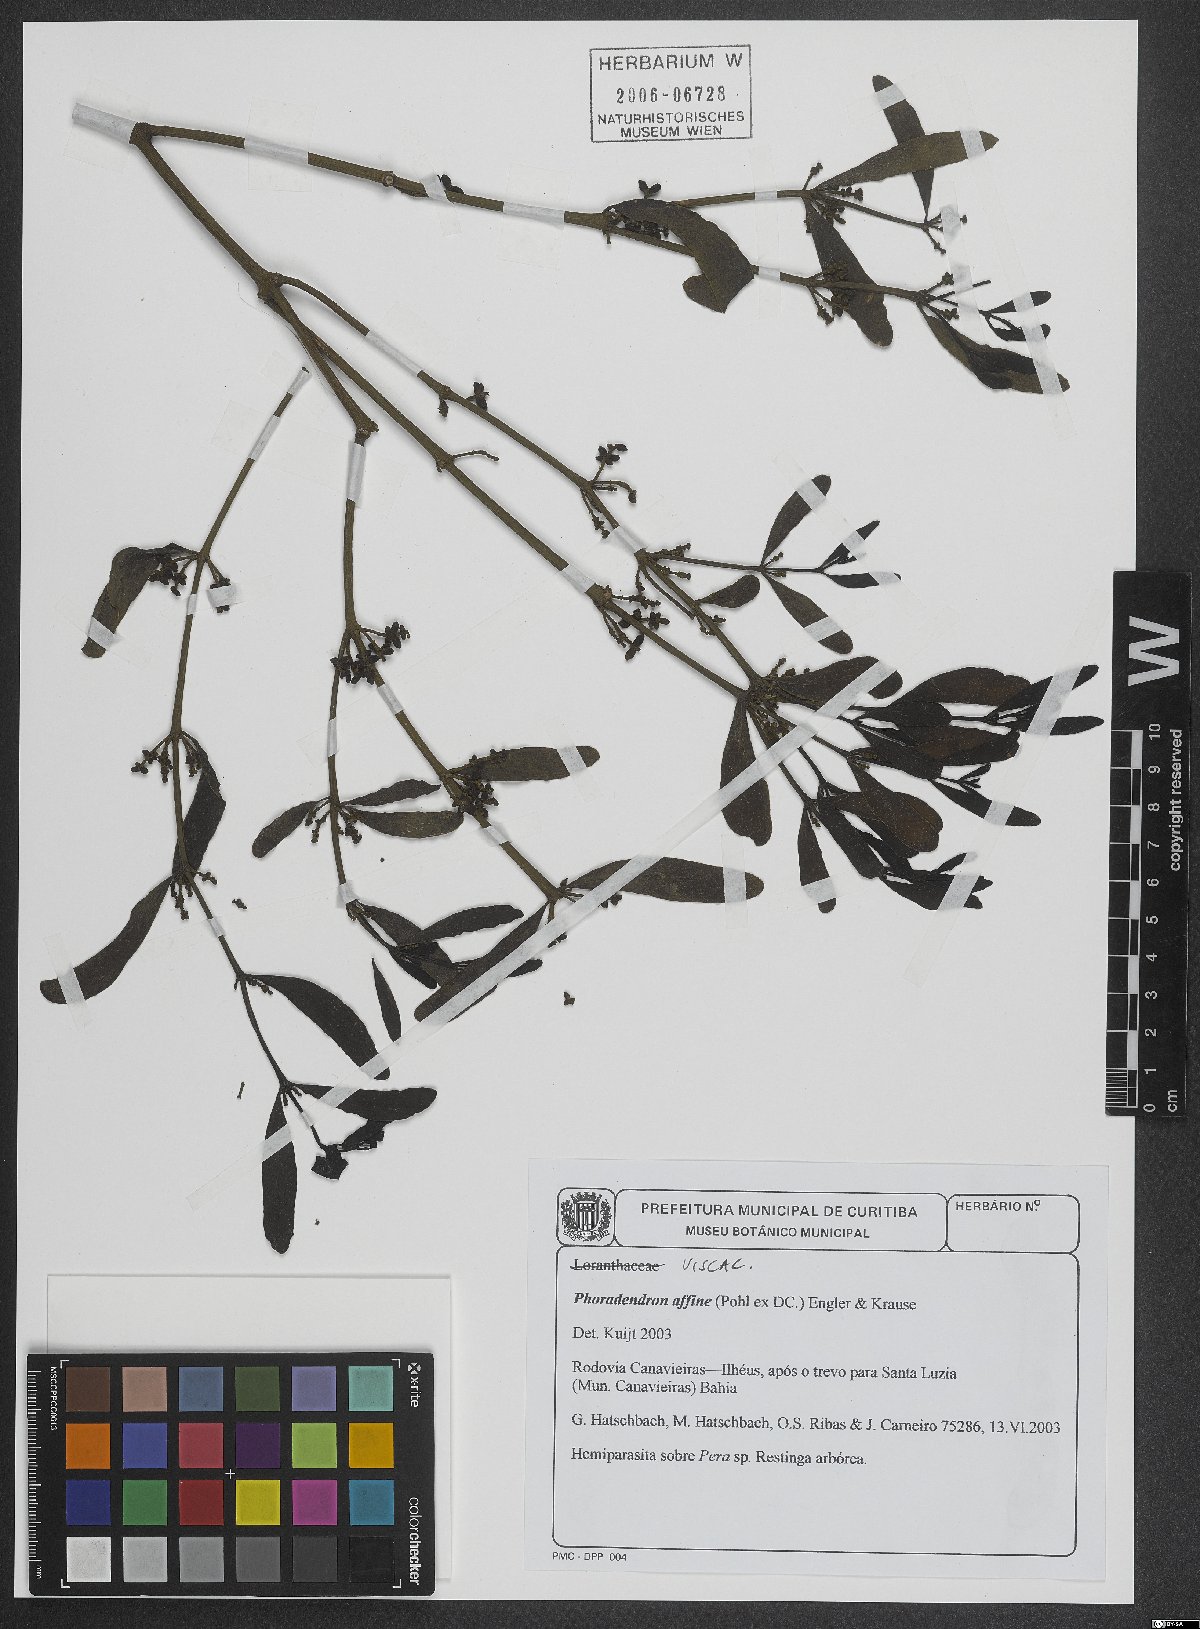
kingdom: Plantae
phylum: Tracheophyta
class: Magnoliopsida
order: Santalales
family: Viscaceae
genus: Phoradendron
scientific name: Phoradendron affine
